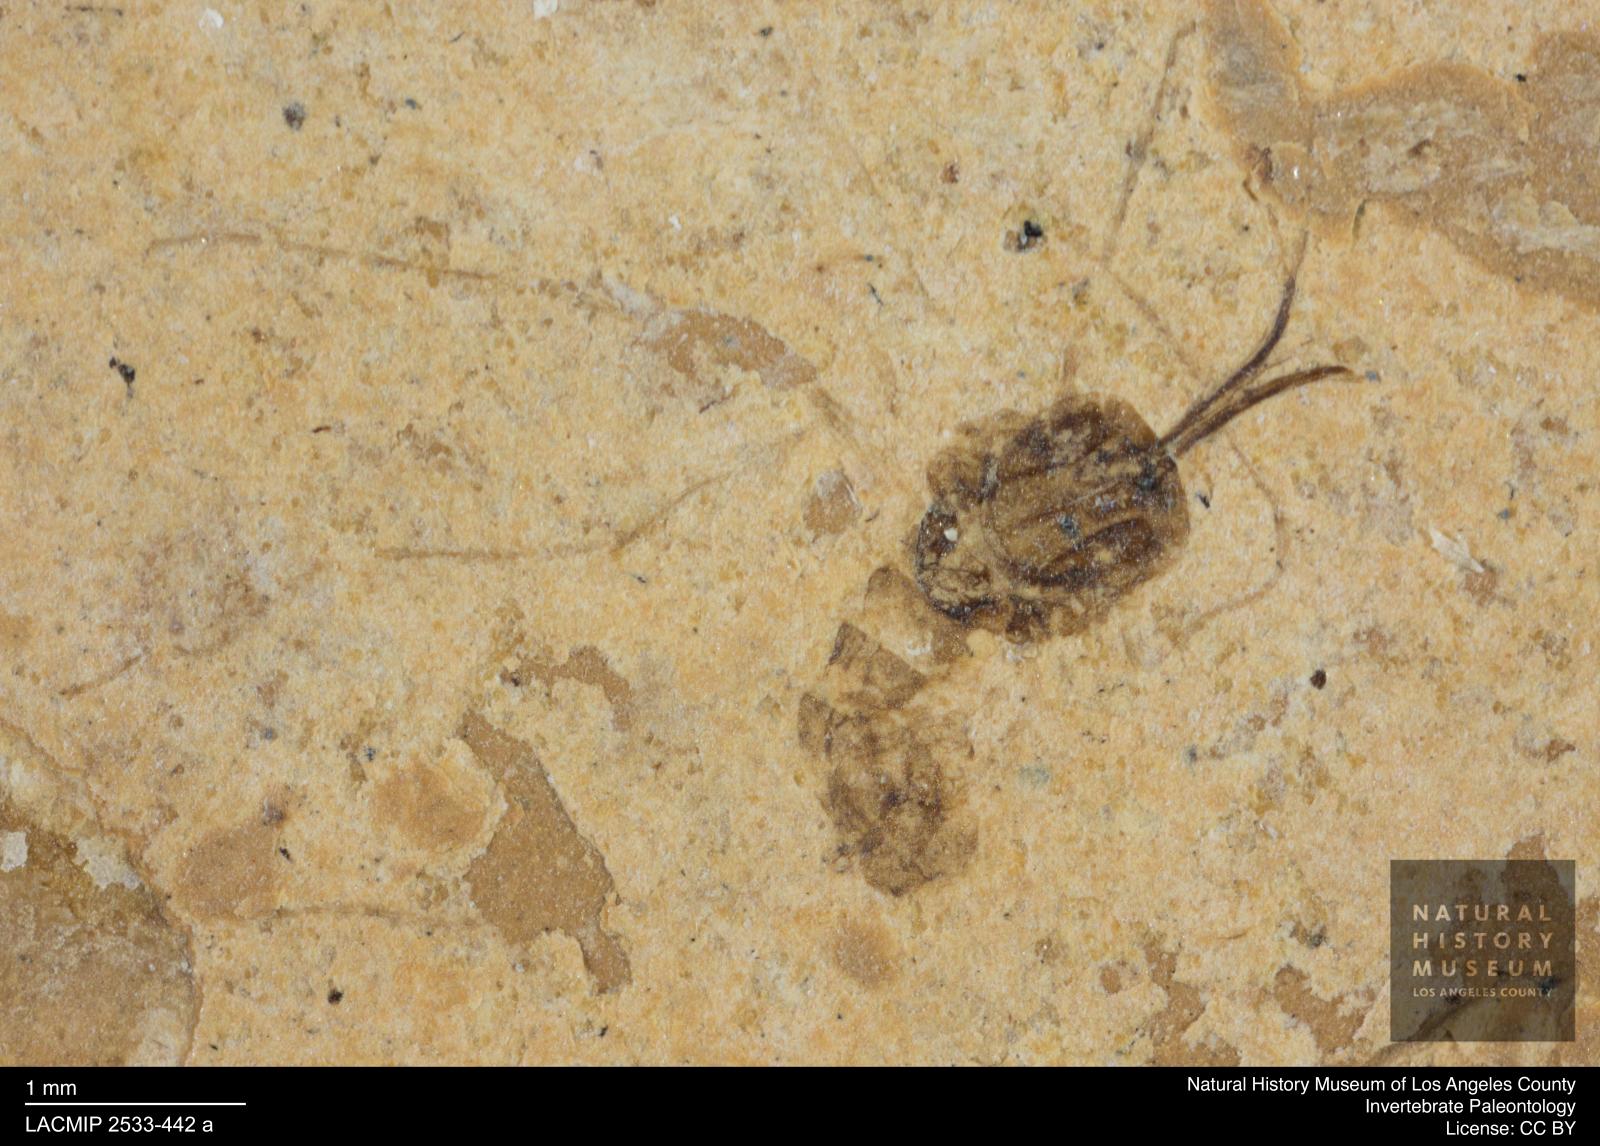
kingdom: Animalia
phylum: Arthropoda
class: Insecta
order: Diptera
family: Chironomidae
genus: Tanypus
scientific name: Tanypus thienemanni
